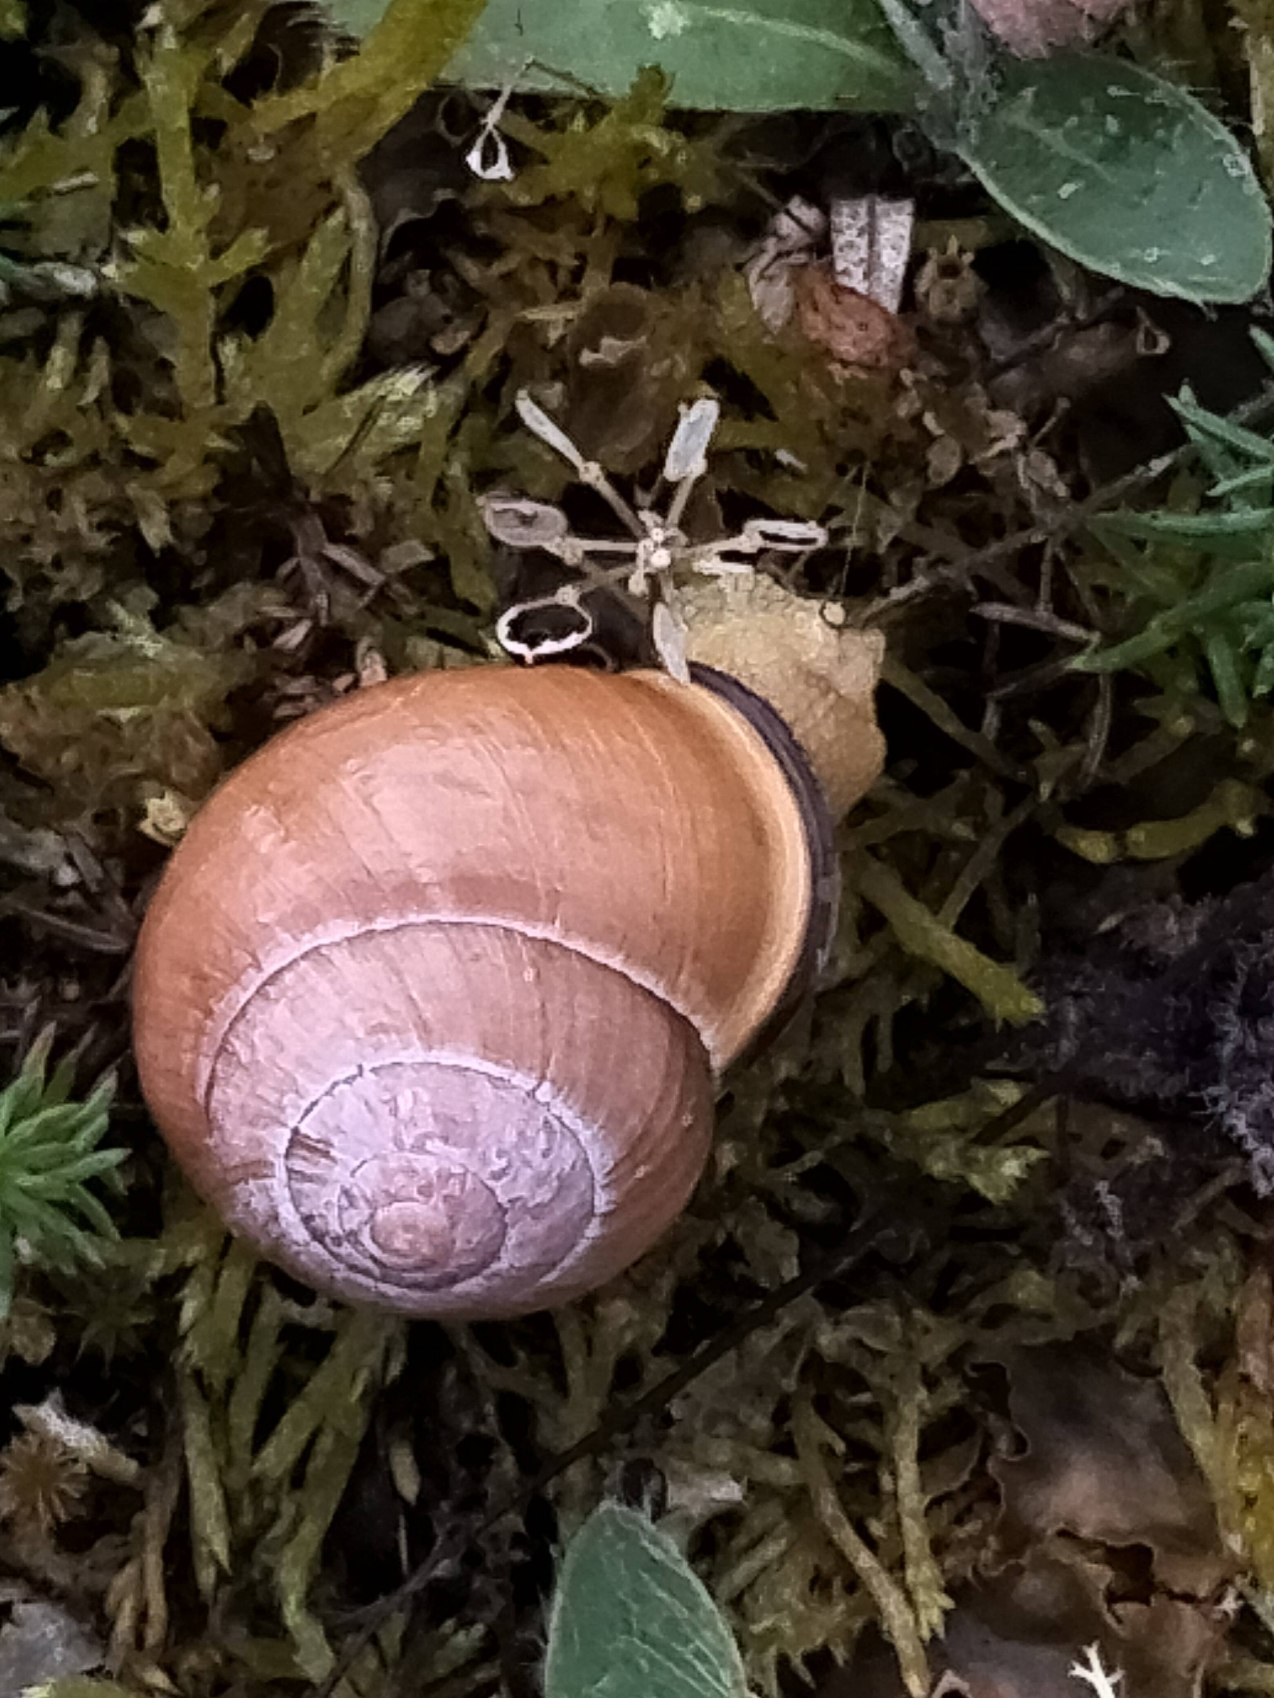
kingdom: Animalia
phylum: Mollusca
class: Gastropoda
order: Stylommatophora
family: Helicidae
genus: Cepaea
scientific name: Cepaea nemoralis
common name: Lundsnegl
